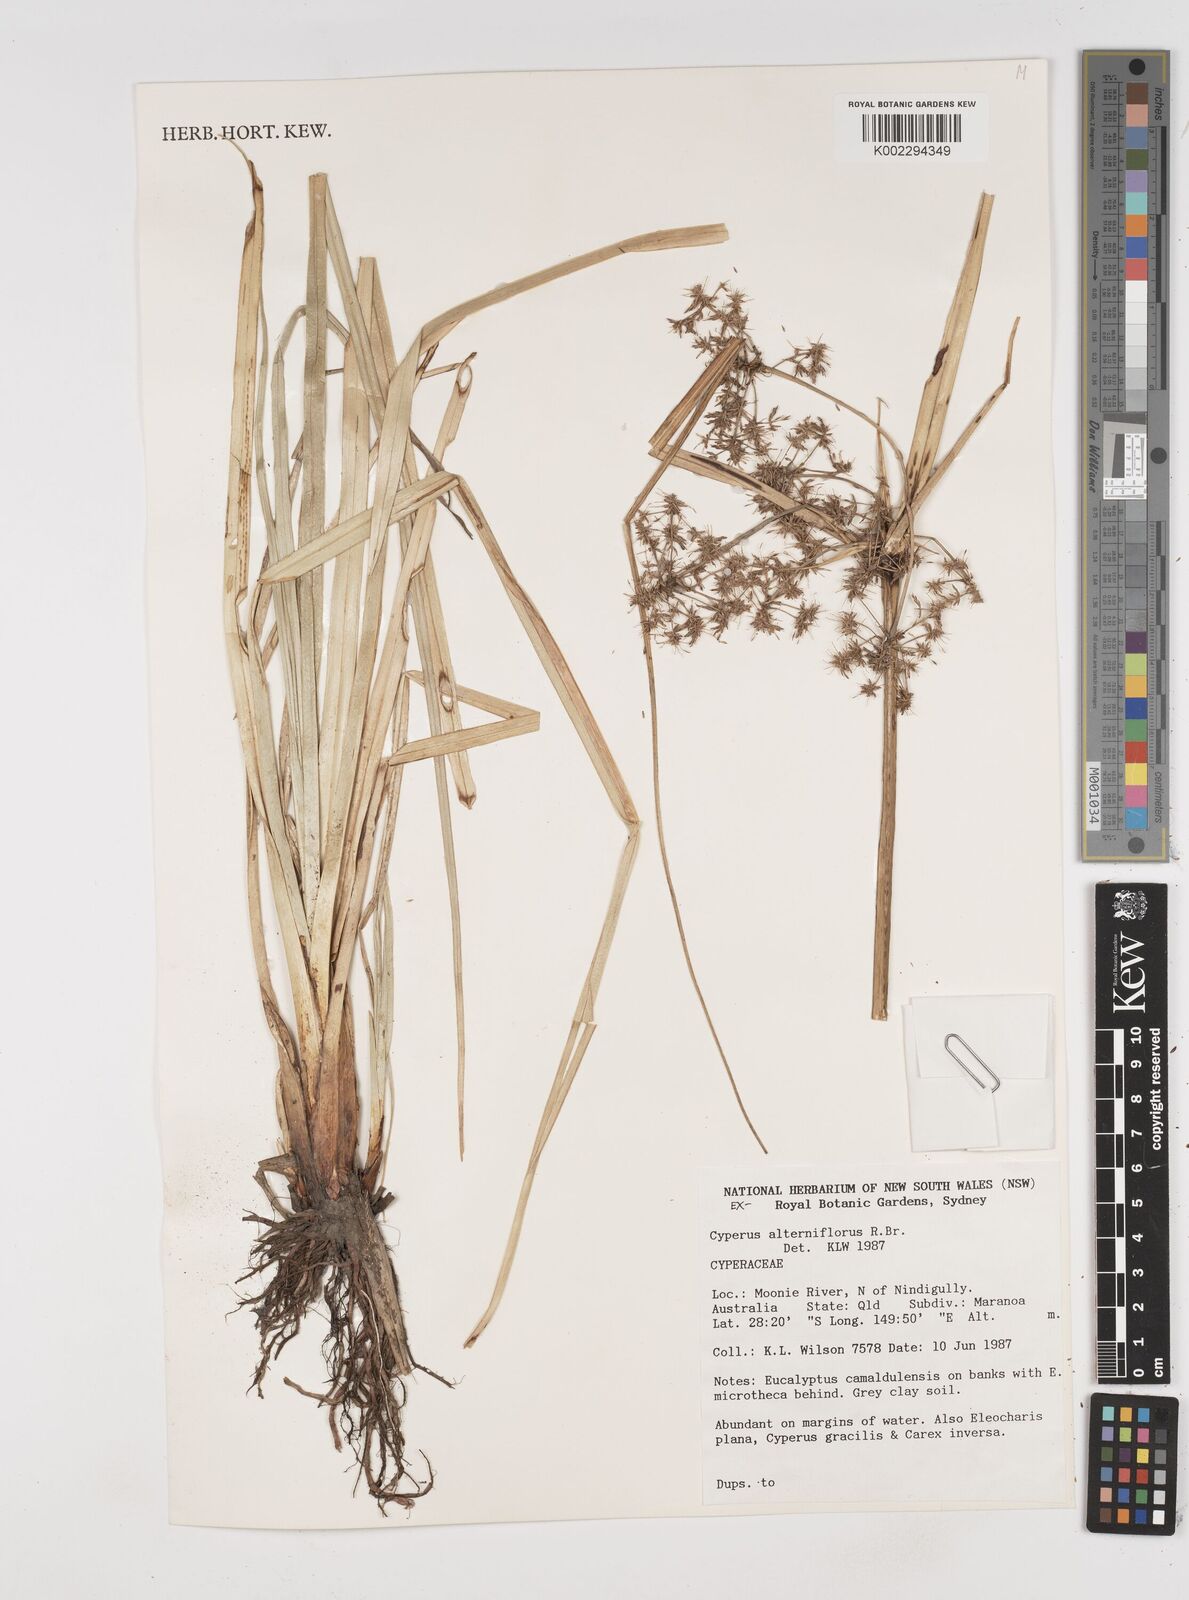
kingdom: Plantae
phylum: Tracheophyta
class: Liliopsida
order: Poales
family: Cyperaceae
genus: Cyperus
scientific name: Cyperus alterniflorus
